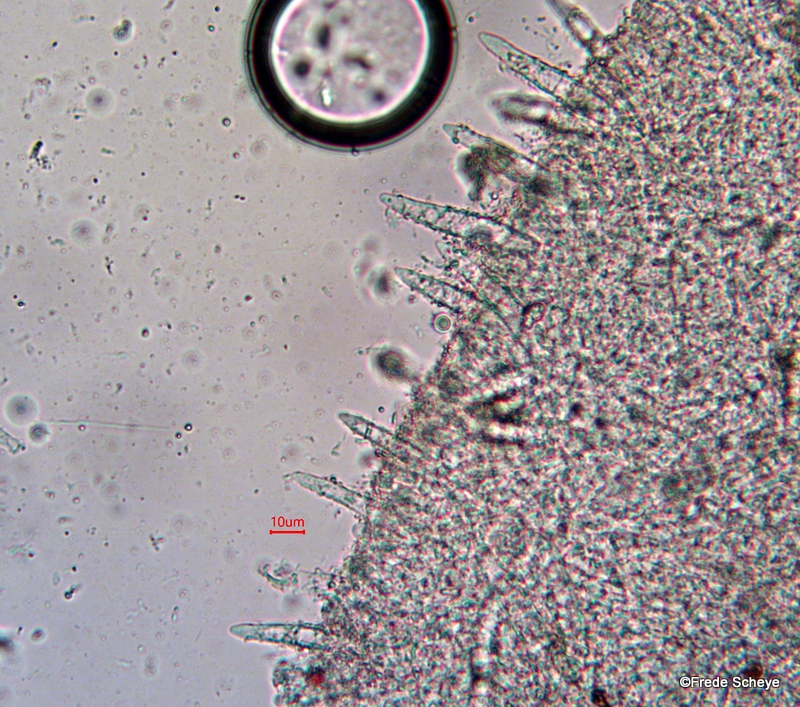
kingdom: Fungi
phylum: Basidiomycota
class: Agaricomycetes
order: Agaricales
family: Physalacriaceae
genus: Strobilurus
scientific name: Strobilurus tenacellus
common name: sommer-koglehat
